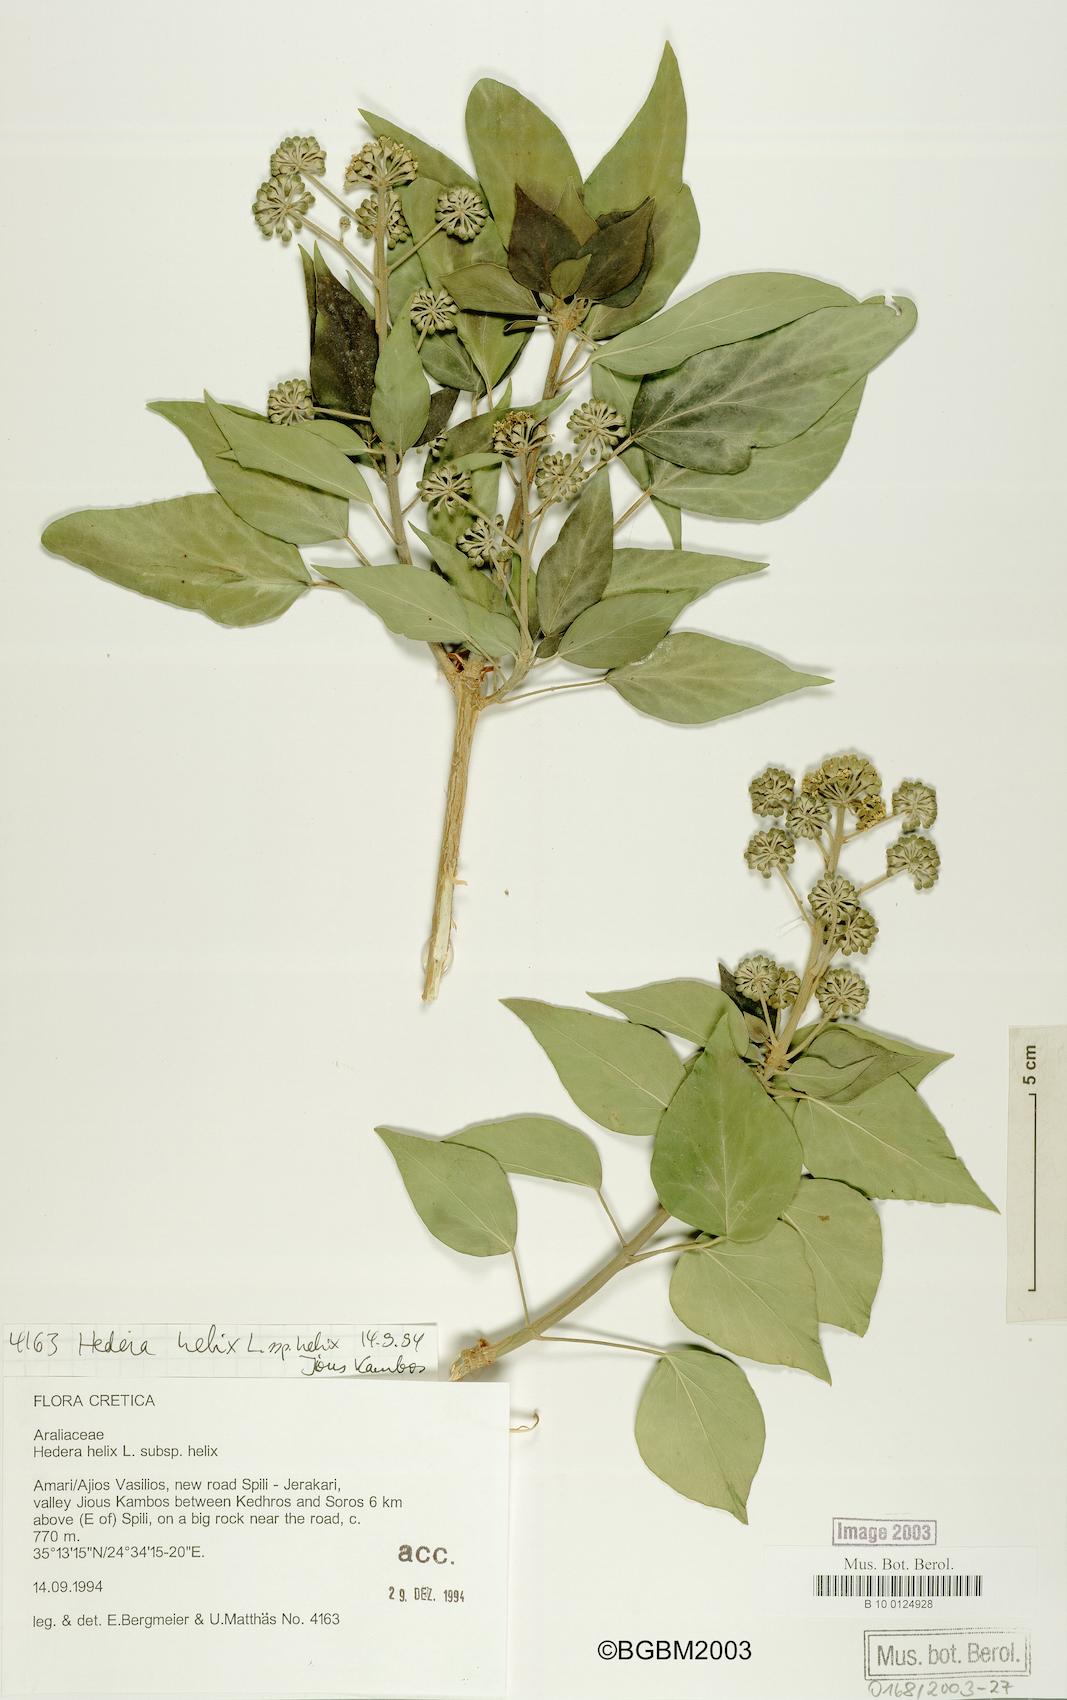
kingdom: Plantae
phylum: Tracheophyta
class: Magnoliopsida
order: Apiales
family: Araliaceae
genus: Hedera
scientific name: Hedera helix
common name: Ivy
